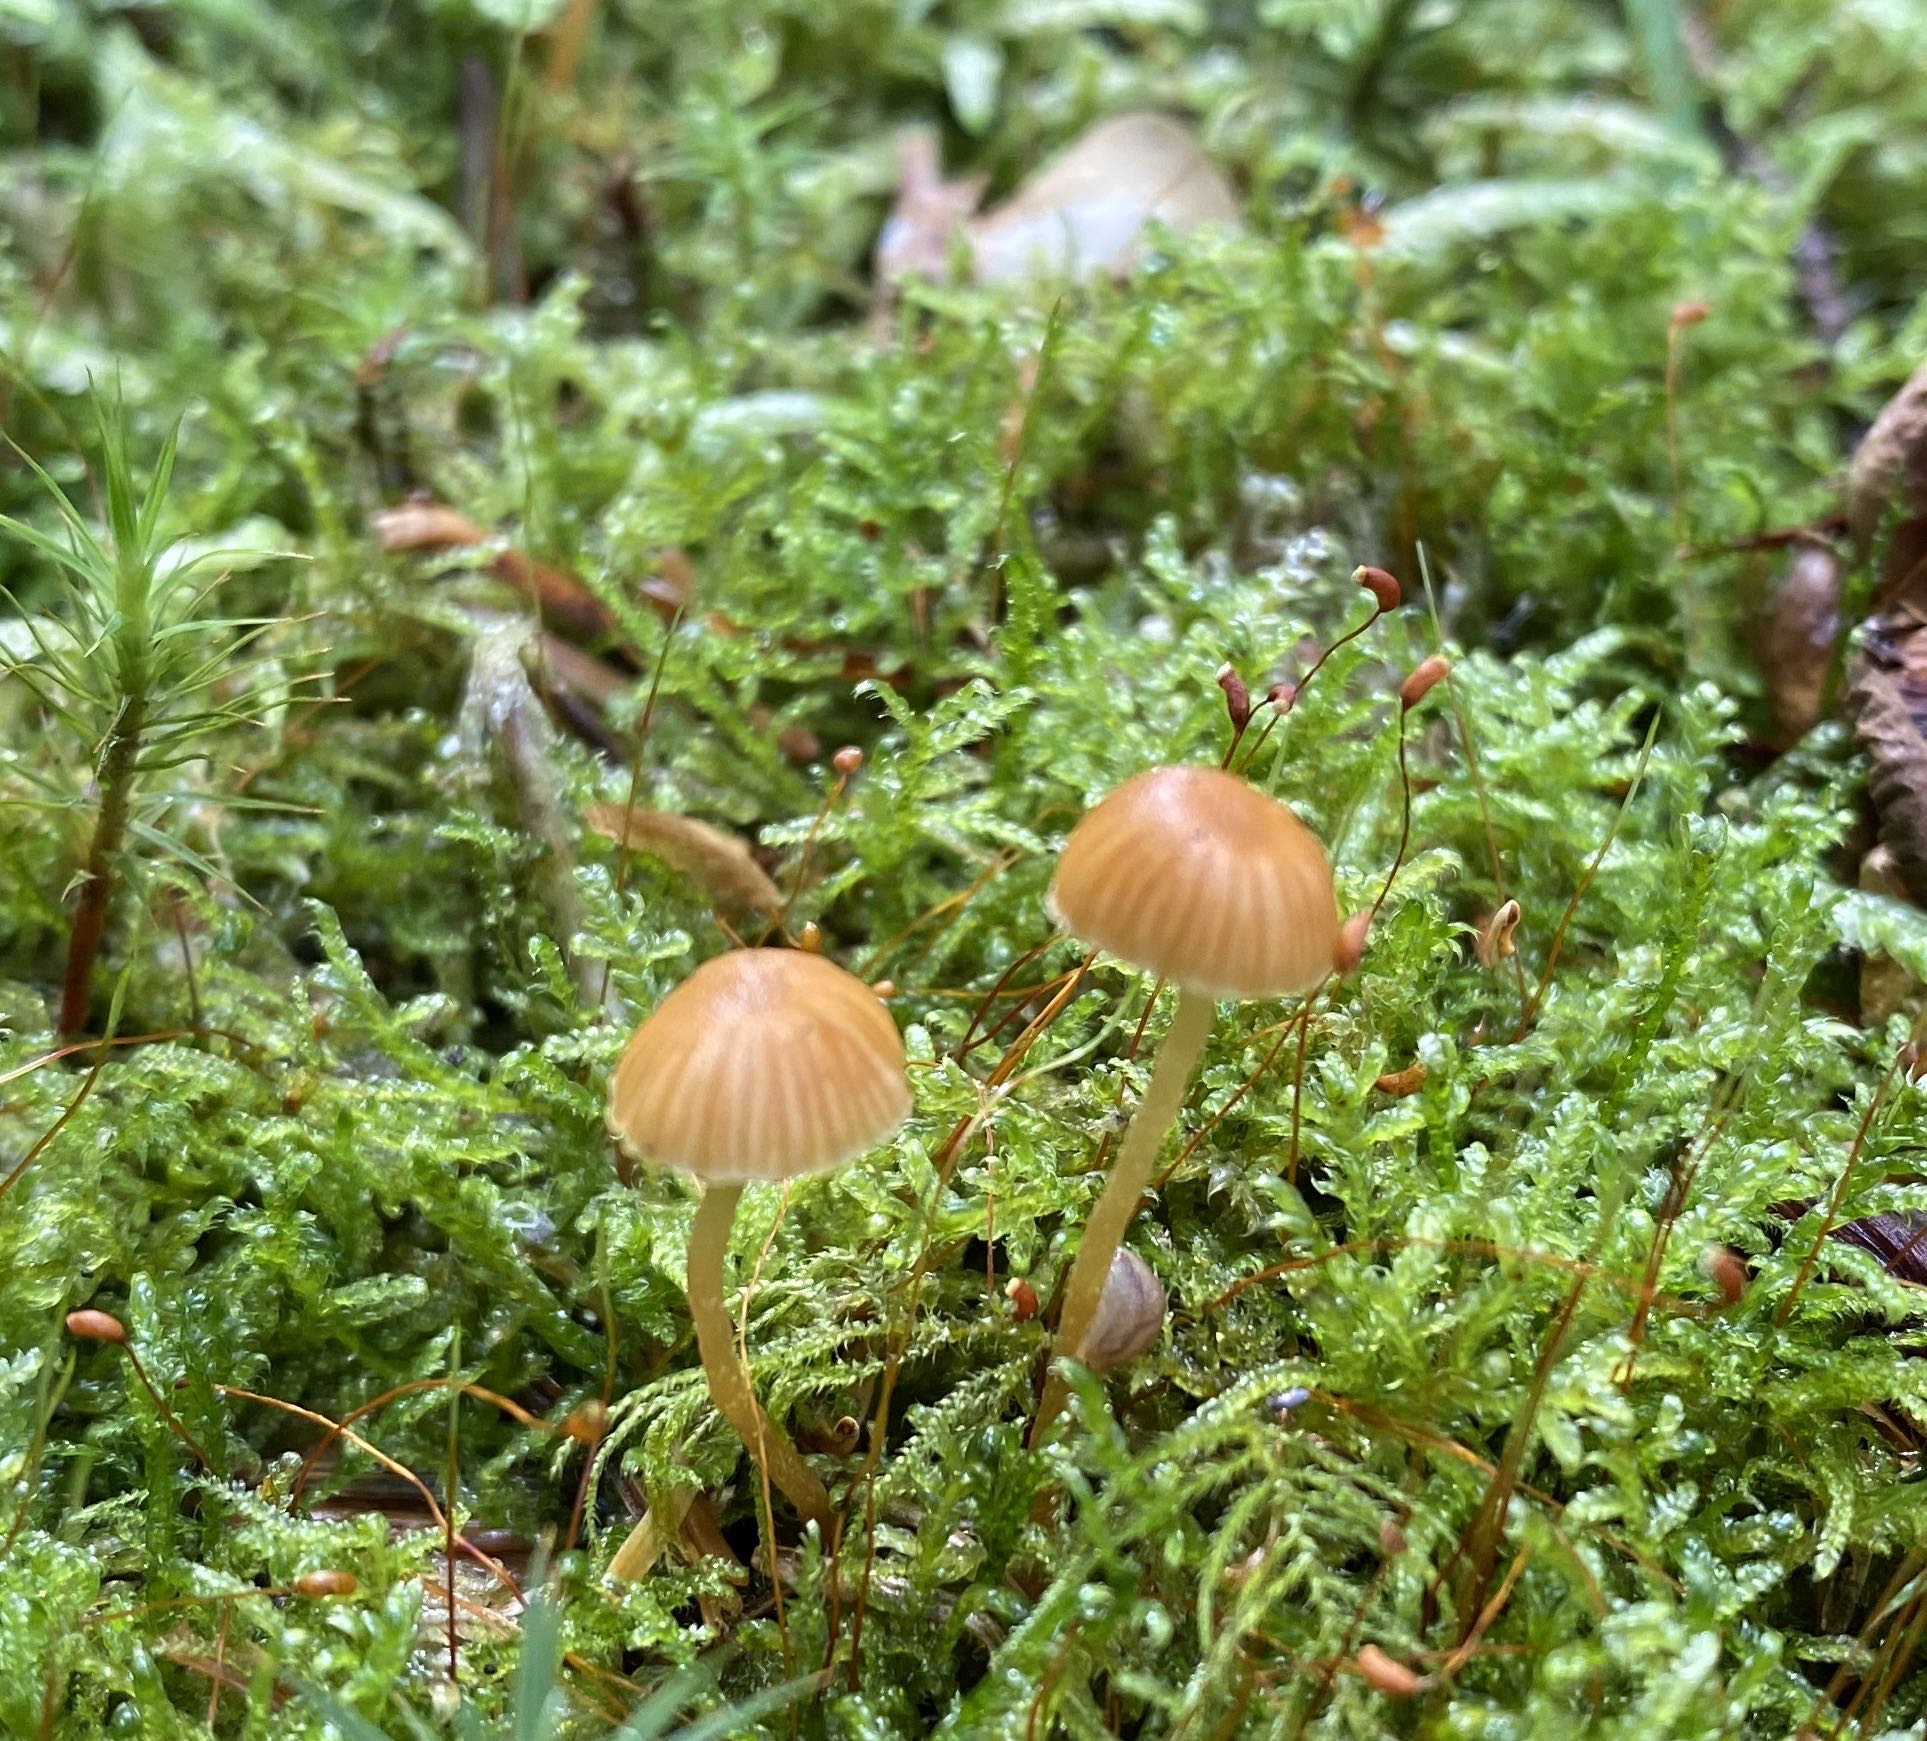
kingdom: Fungi
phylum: Basidiomycota
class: Agaricomycetes
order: Agaricales
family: Hymenogastraceae
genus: Galerina
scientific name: Galerina
